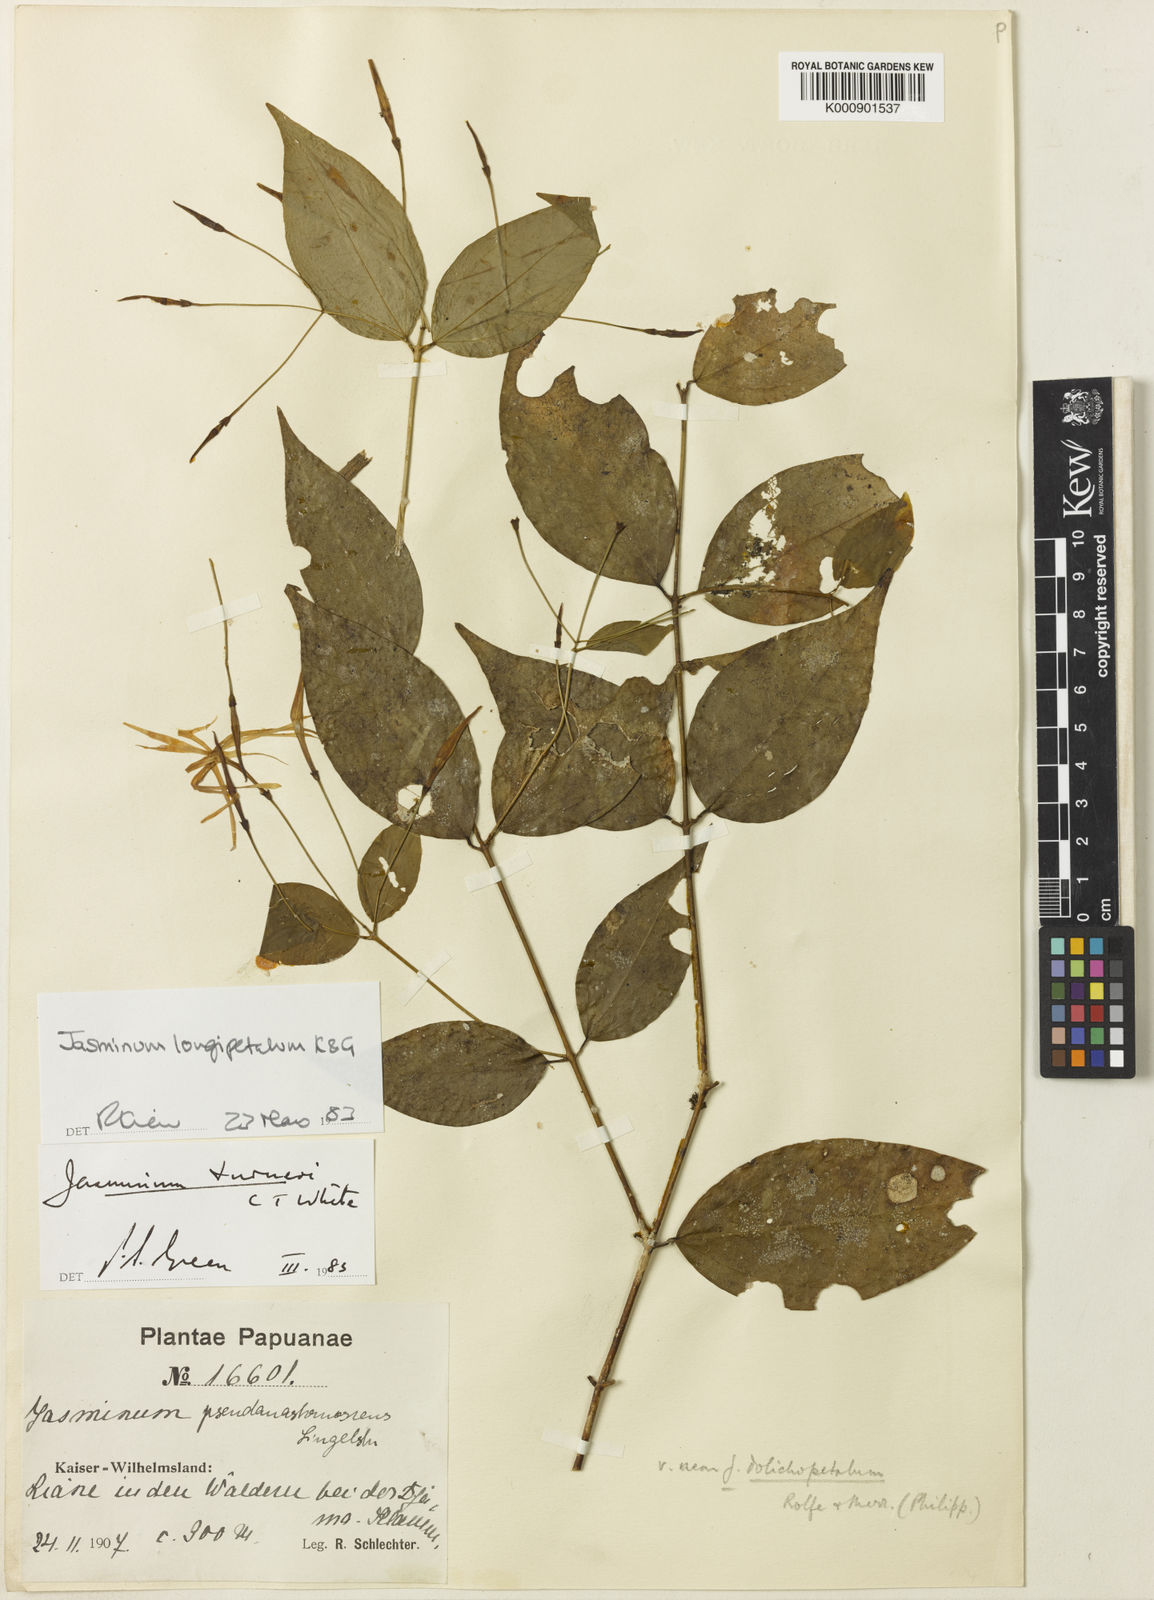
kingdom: Plantae
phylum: Tracheophyta
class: Magnoliopsida
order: Lamiales
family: Oleaceae
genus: Jasminum
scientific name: Jasminum turneri
